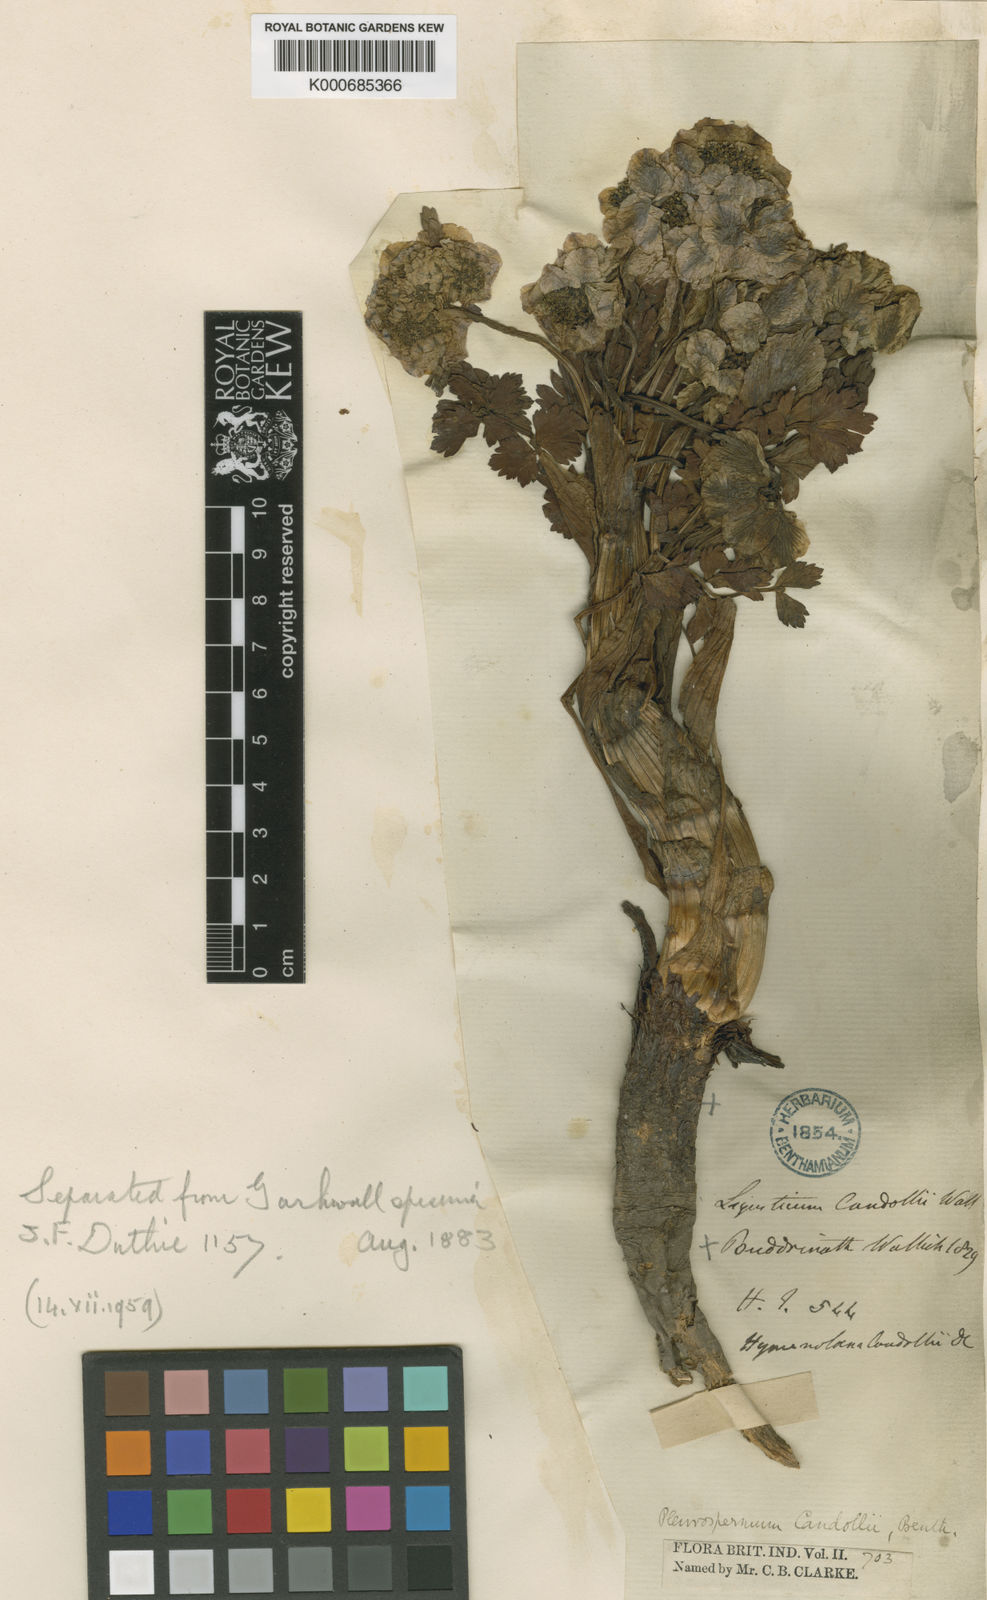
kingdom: Plantae
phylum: Tracheophyta
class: Magnoliopsida
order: Apiales
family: Apiaceae
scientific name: Apiaceae
